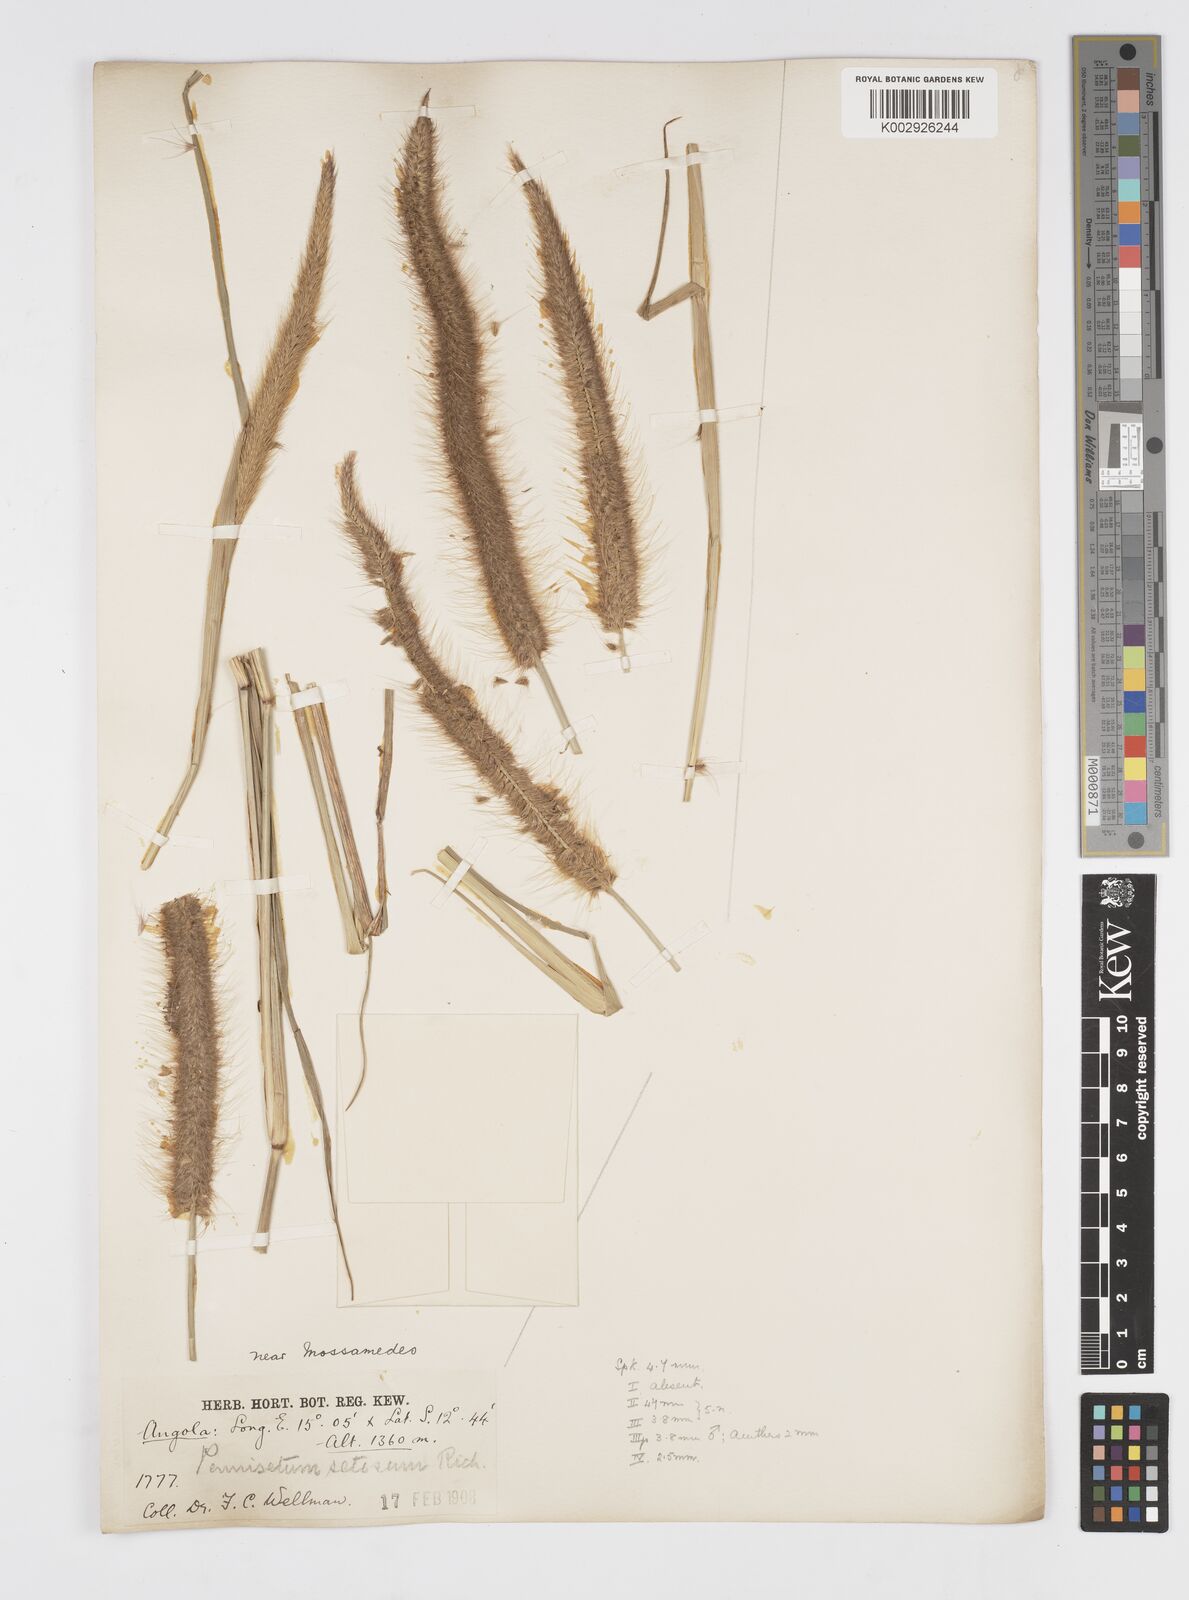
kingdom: Plantae
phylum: Tracheophyta
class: Liliopsida
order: Poales
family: Poaceae
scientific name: Poaceae
